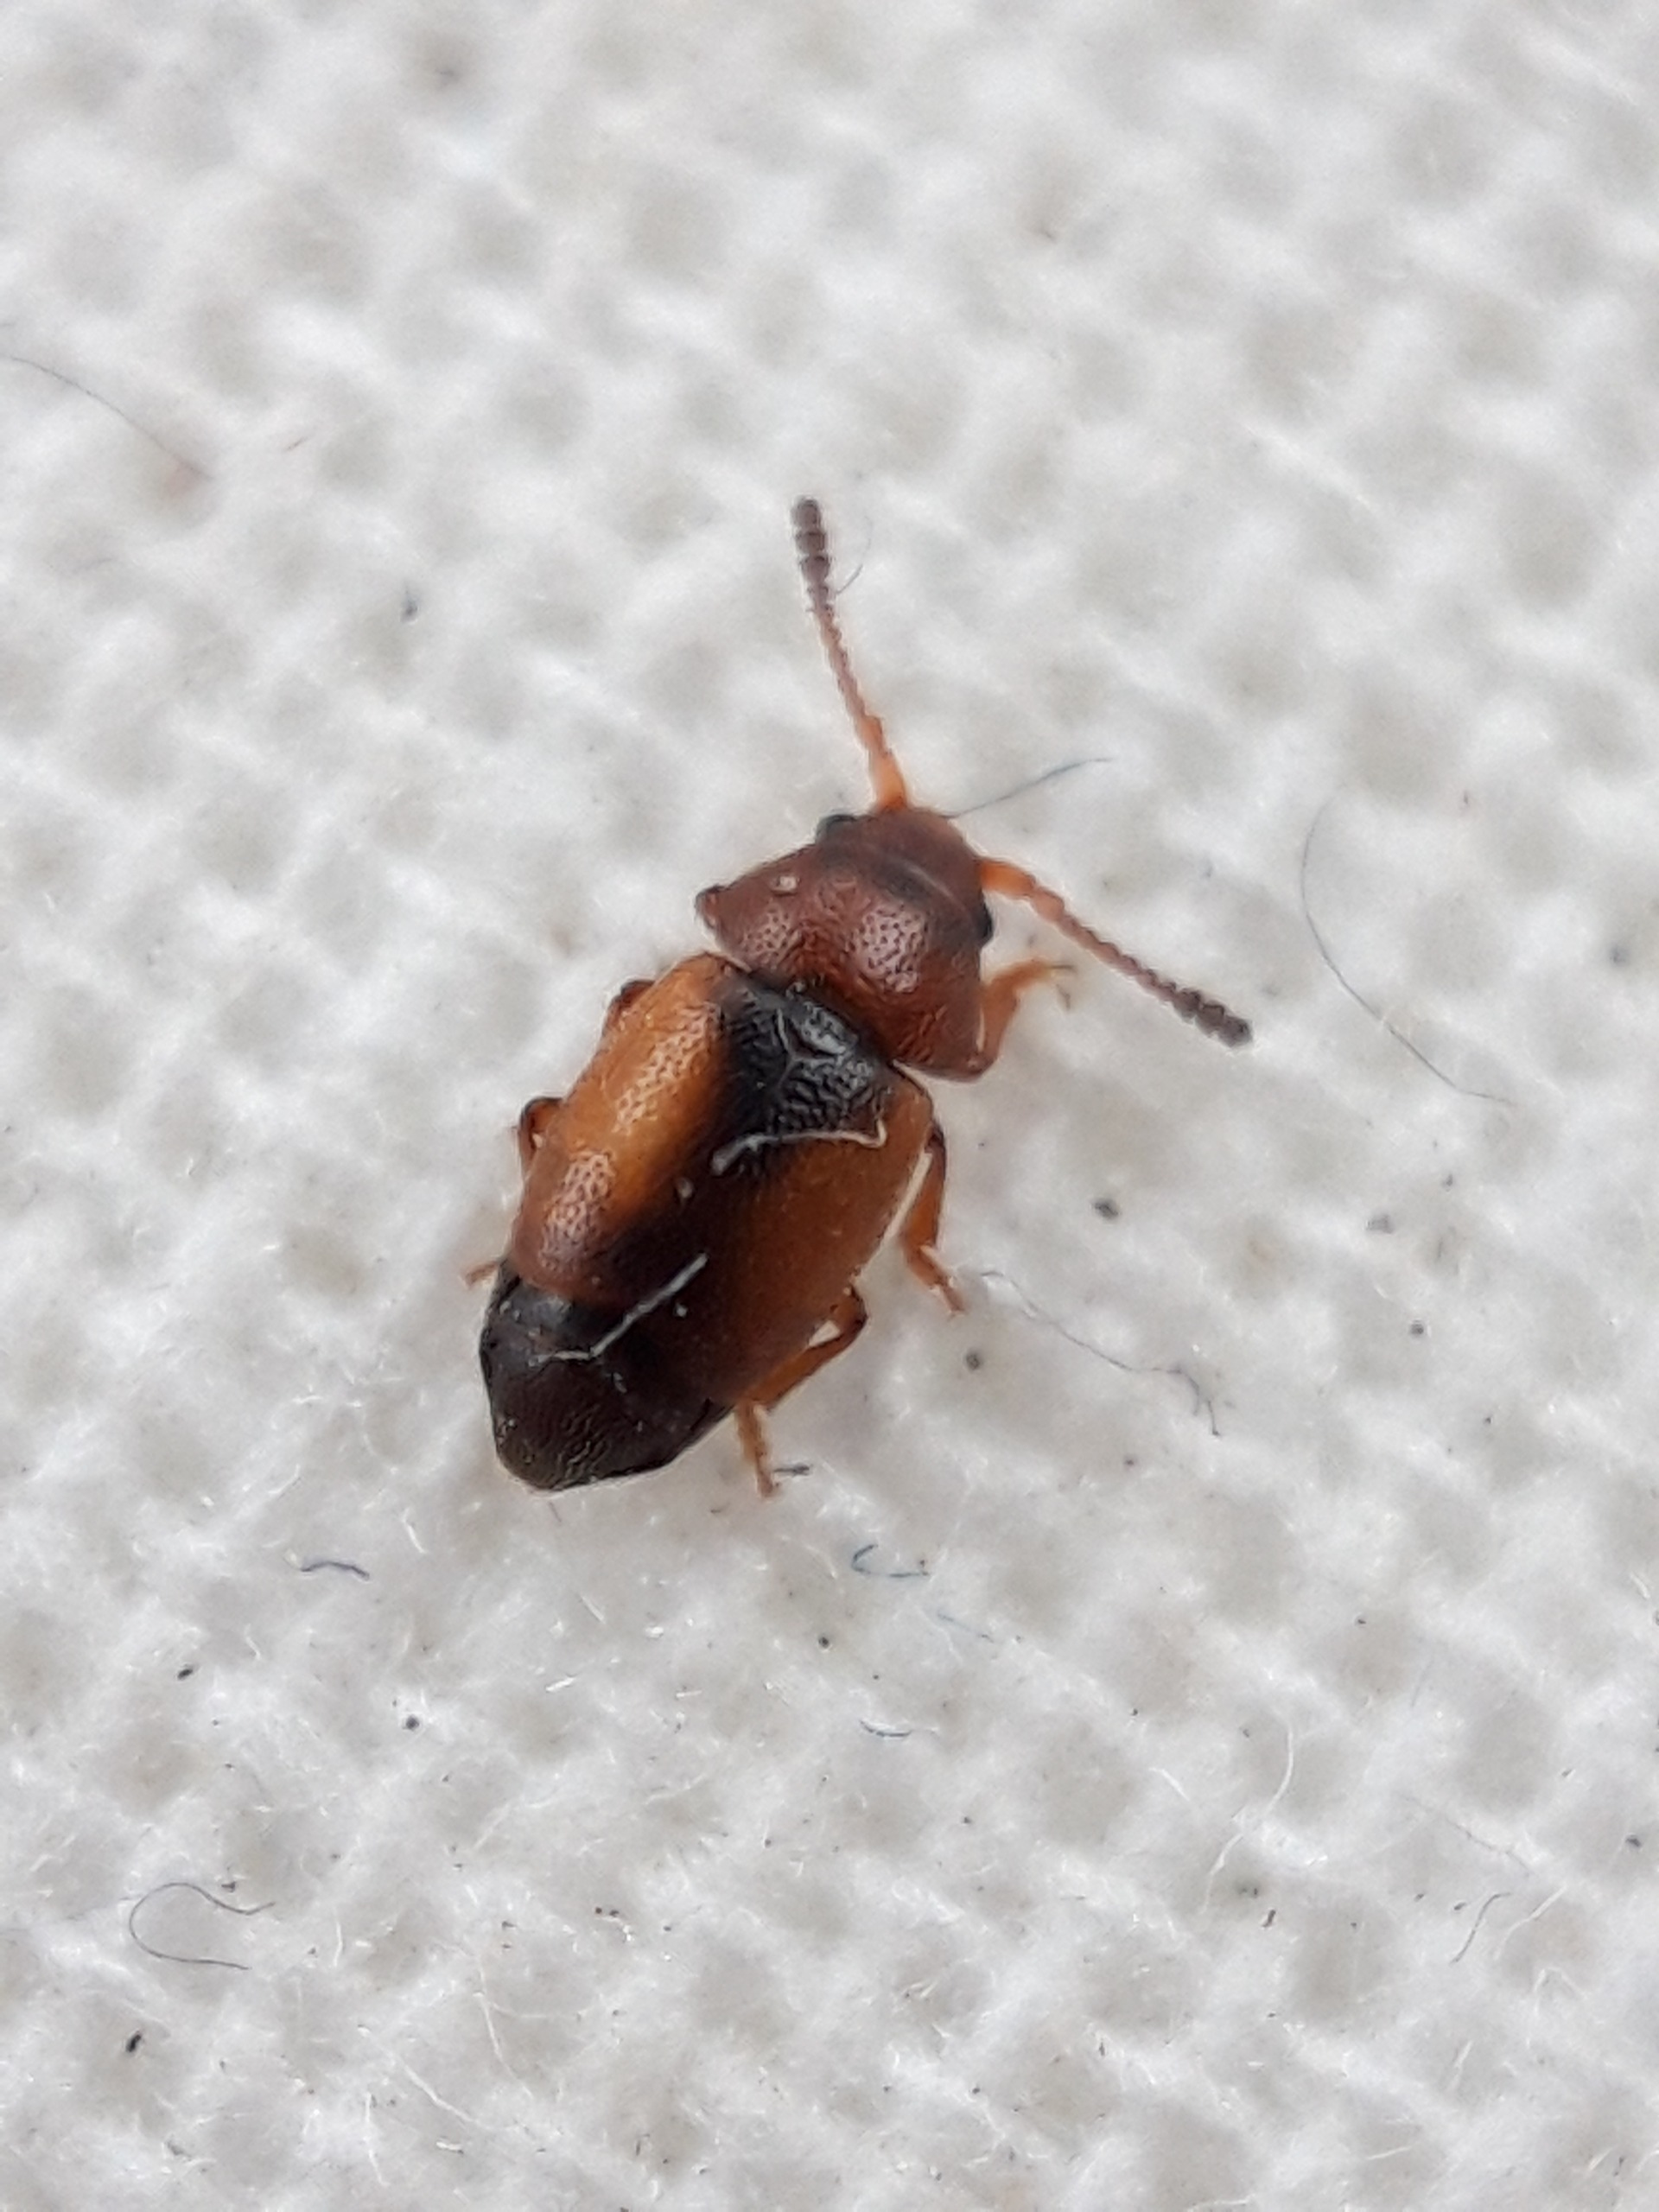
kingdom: Animalia
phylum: Arthropoda
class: Insecta
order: Coleoptera
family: Kateretidae
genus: Kateretes
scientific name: Kateretes pedicularius
